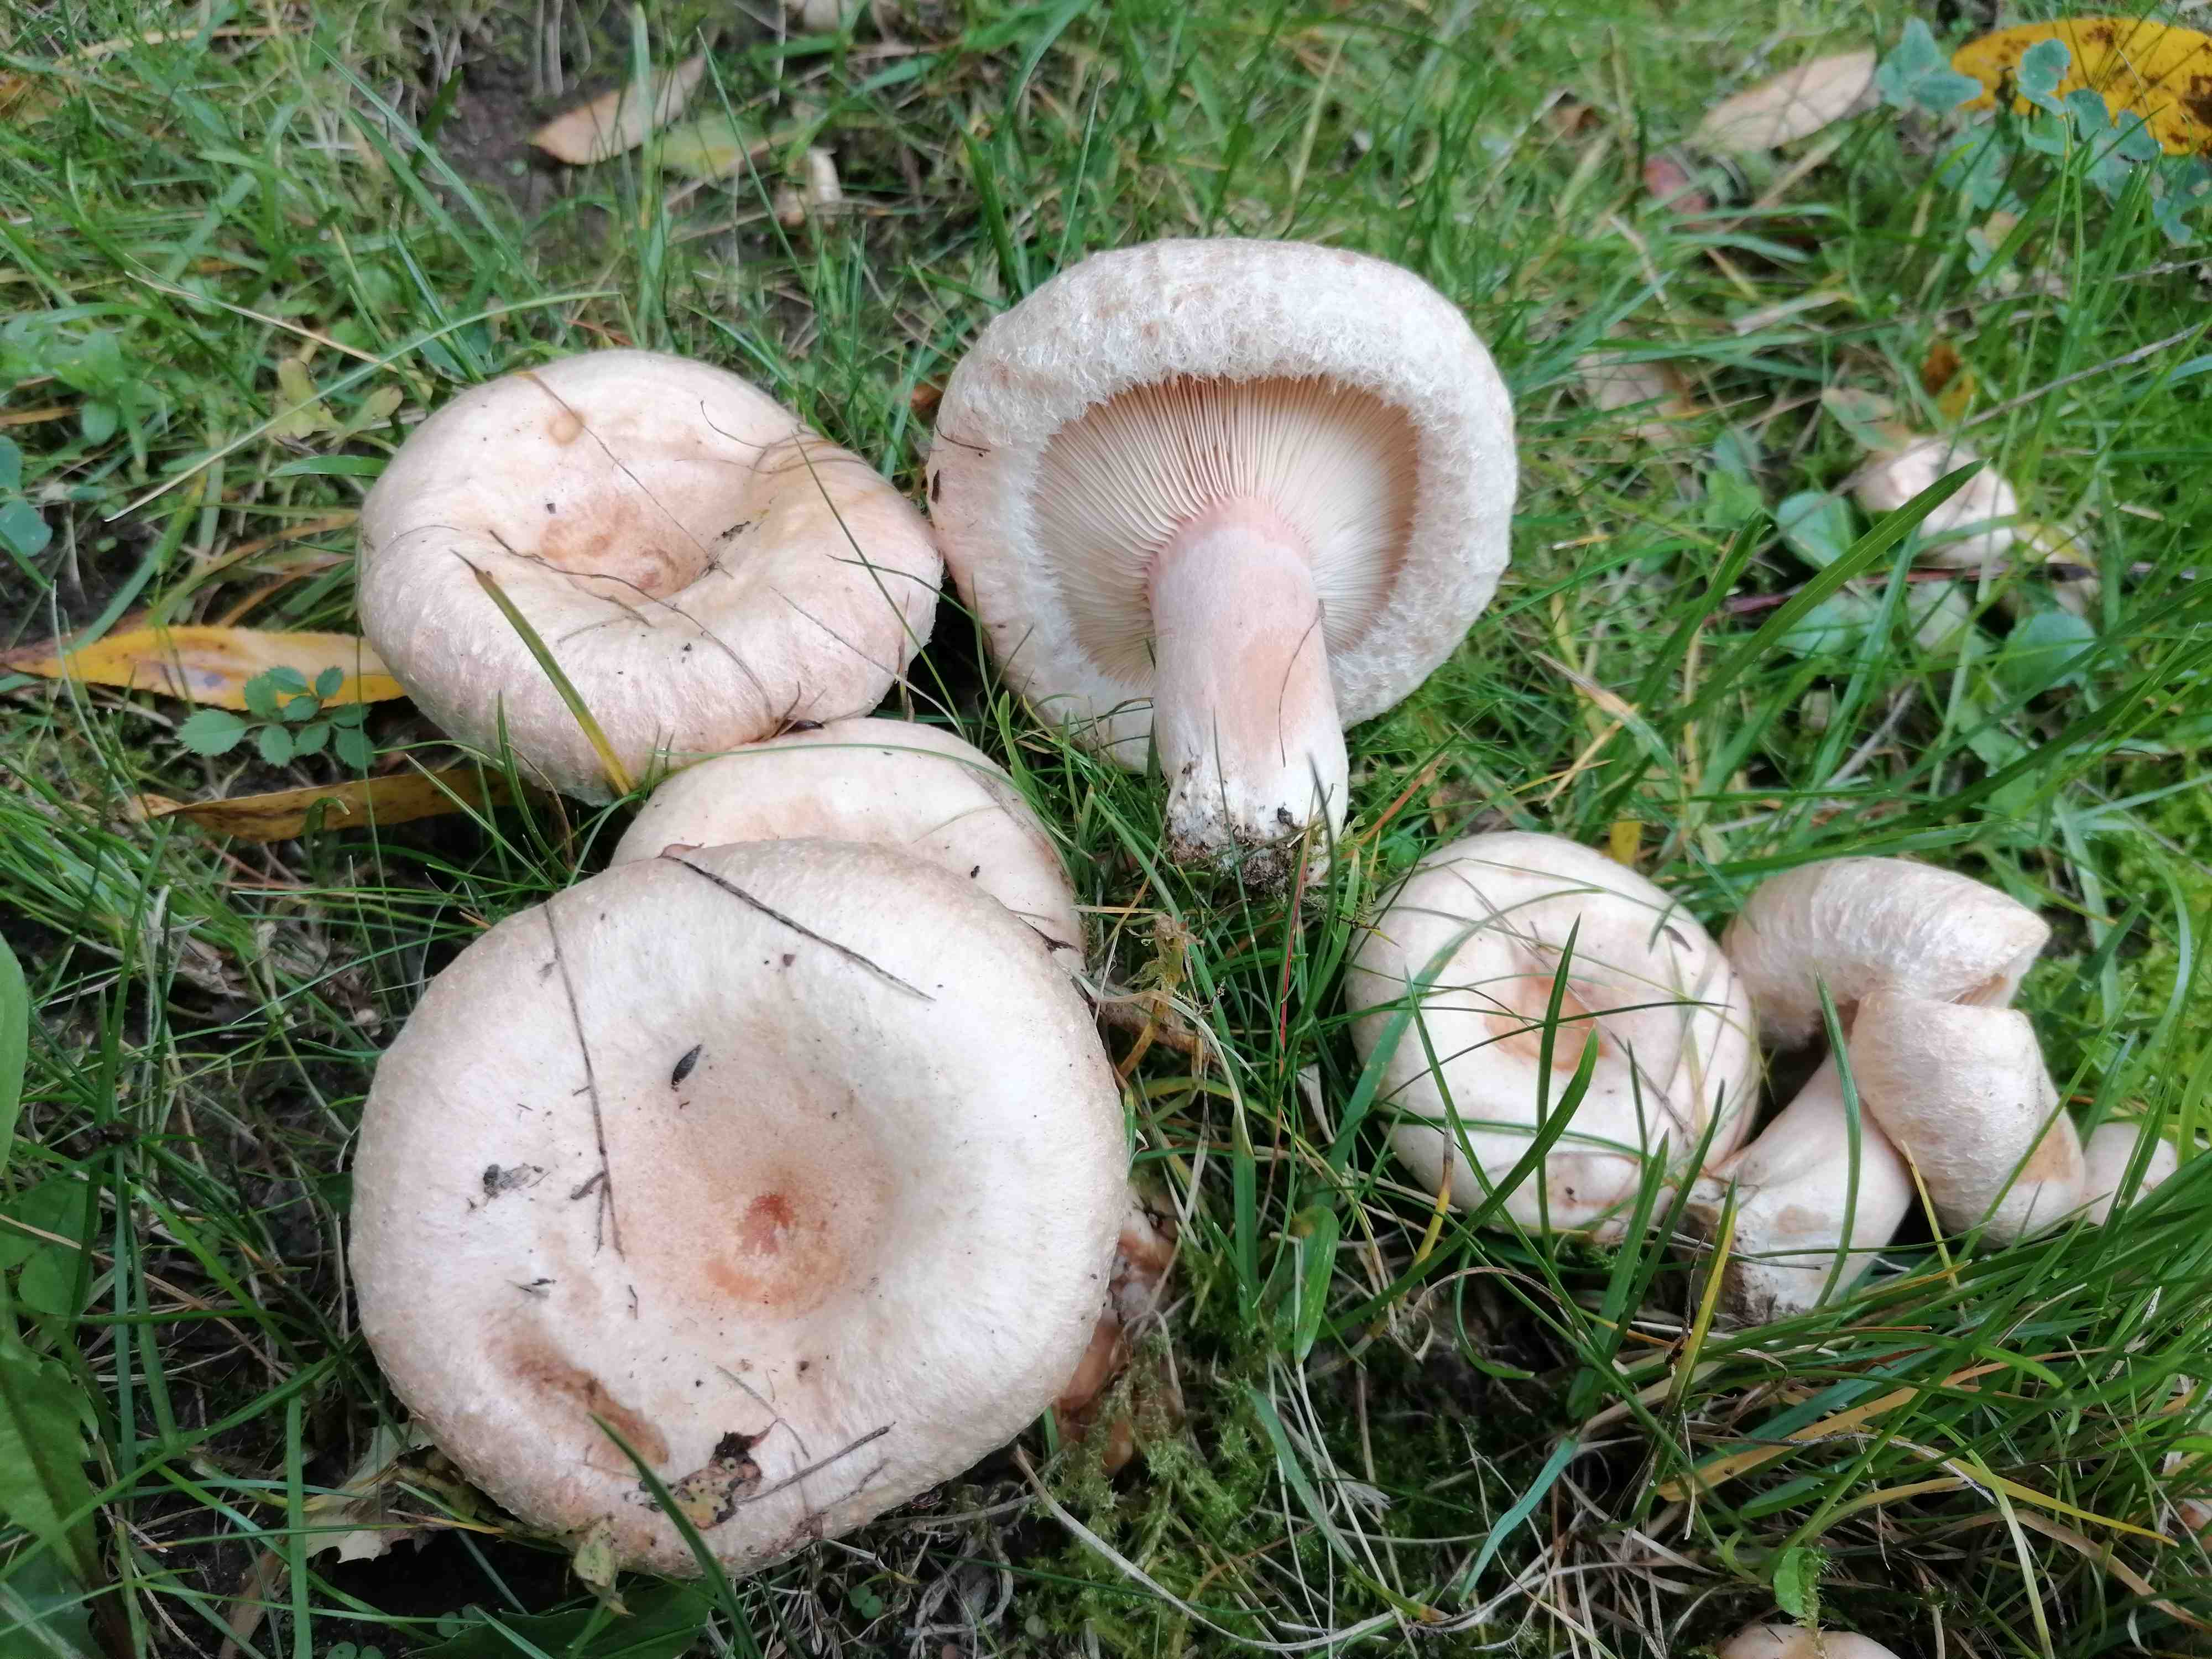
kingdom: Fungi
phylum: Basidiomycota
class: Agaricomycetes
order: Russulales
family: Russulaceae
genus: Lactarius
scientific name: Lactarius pubescens
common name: dunet mælkehat
